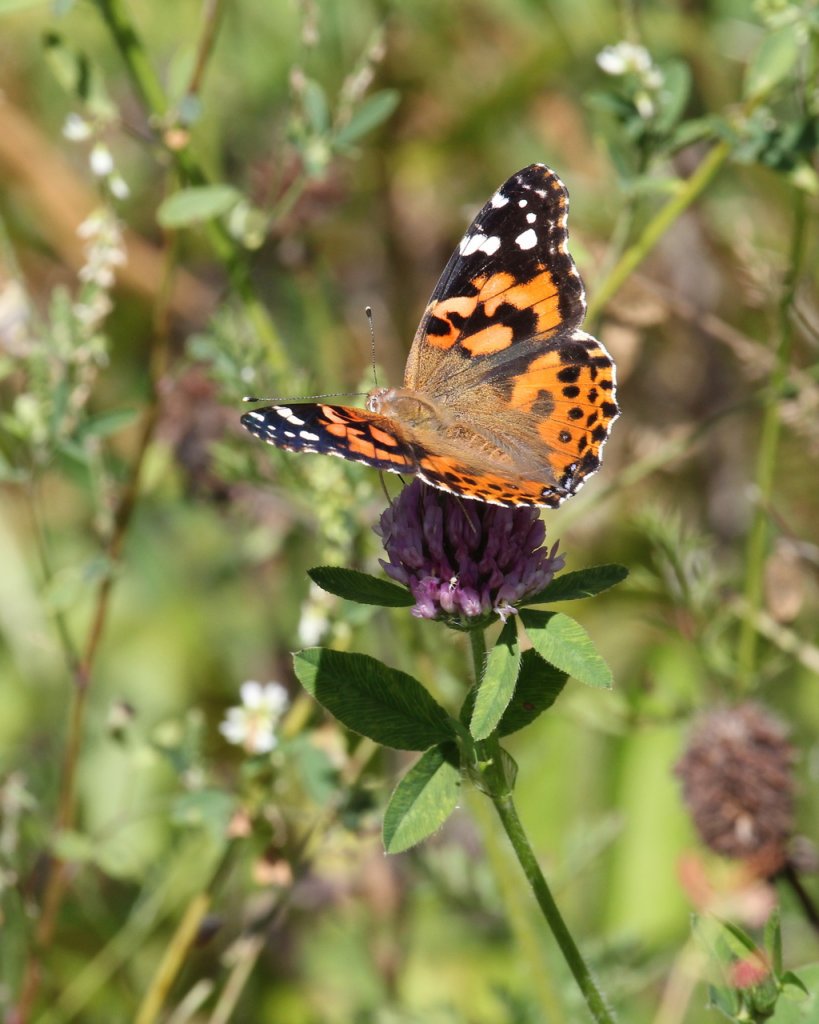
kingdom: Animalia
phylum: Arthropoda
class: Insecta
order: Lepidoptera
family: Nymphalidae
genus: Vanessa
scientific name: Vanessa cardui
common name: Painted Lady
